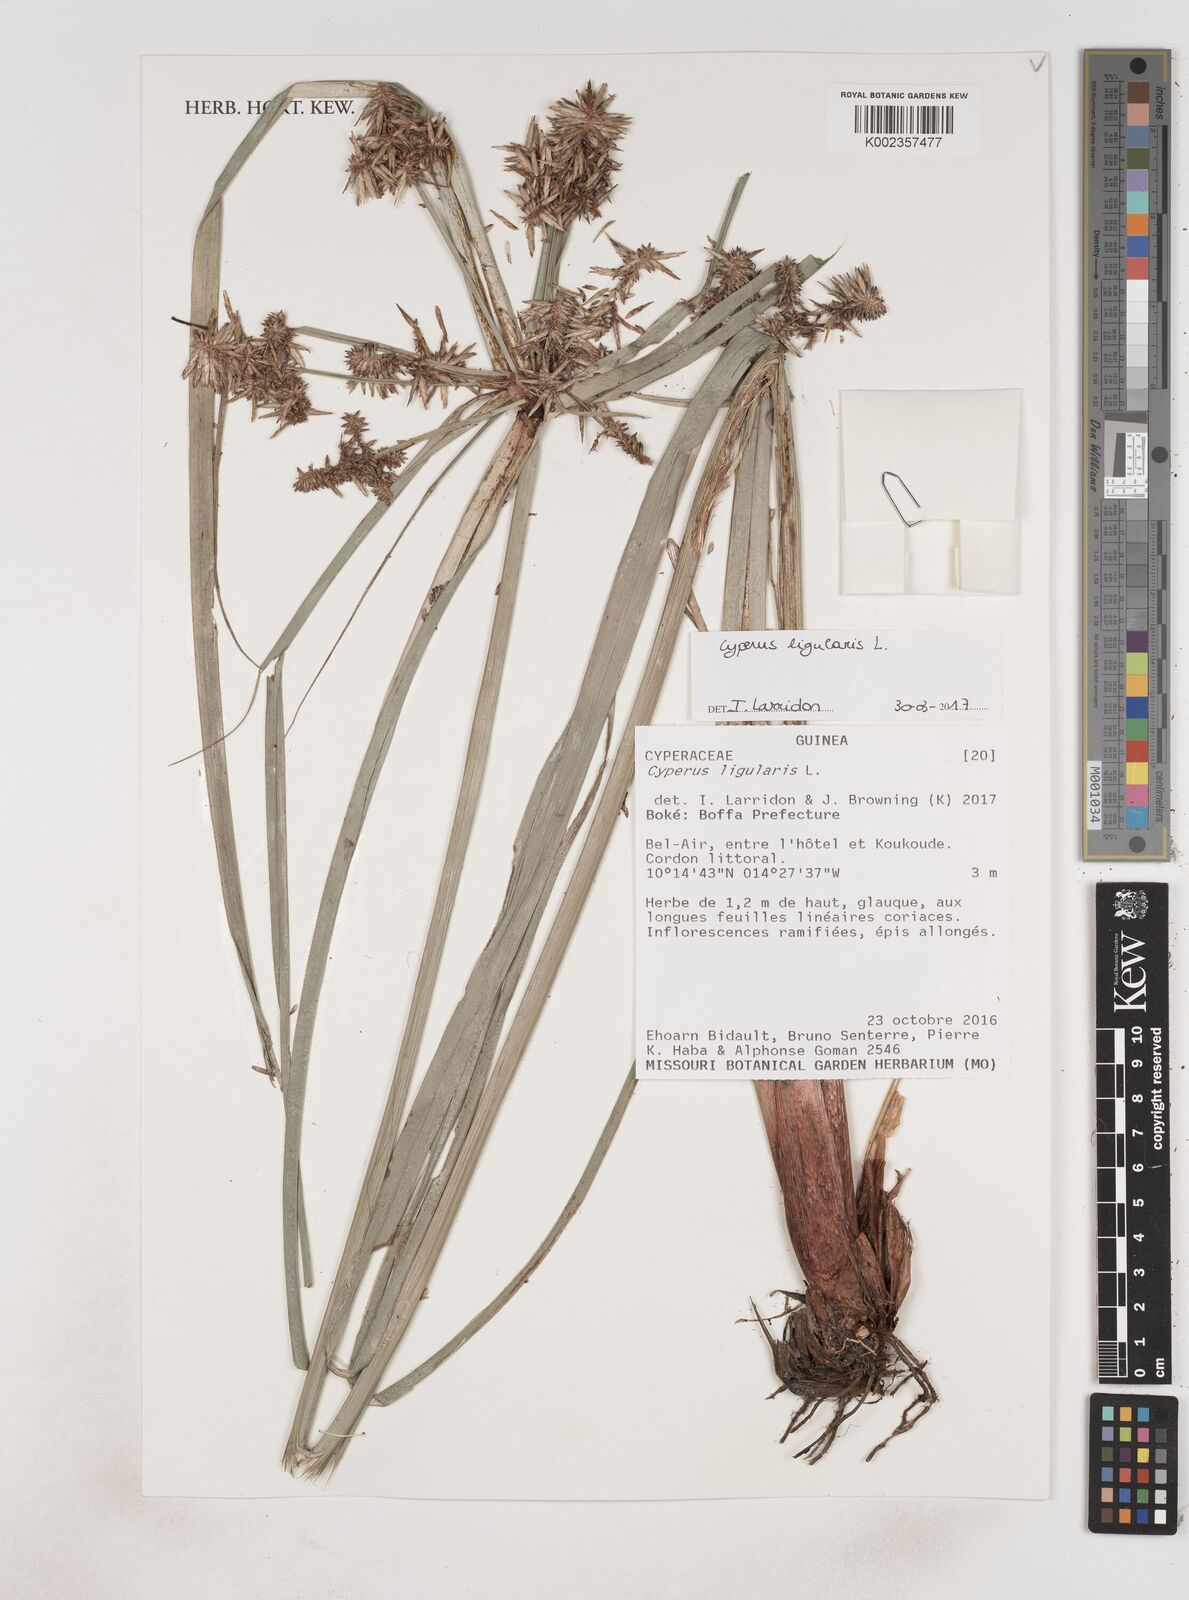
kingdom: Plantae
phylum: Tracheophyta
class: Liliopsida
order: Poales
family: Cyperaceae
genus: Cyperus
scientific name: Cyperus ligularis
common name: Swamp flat sedge
